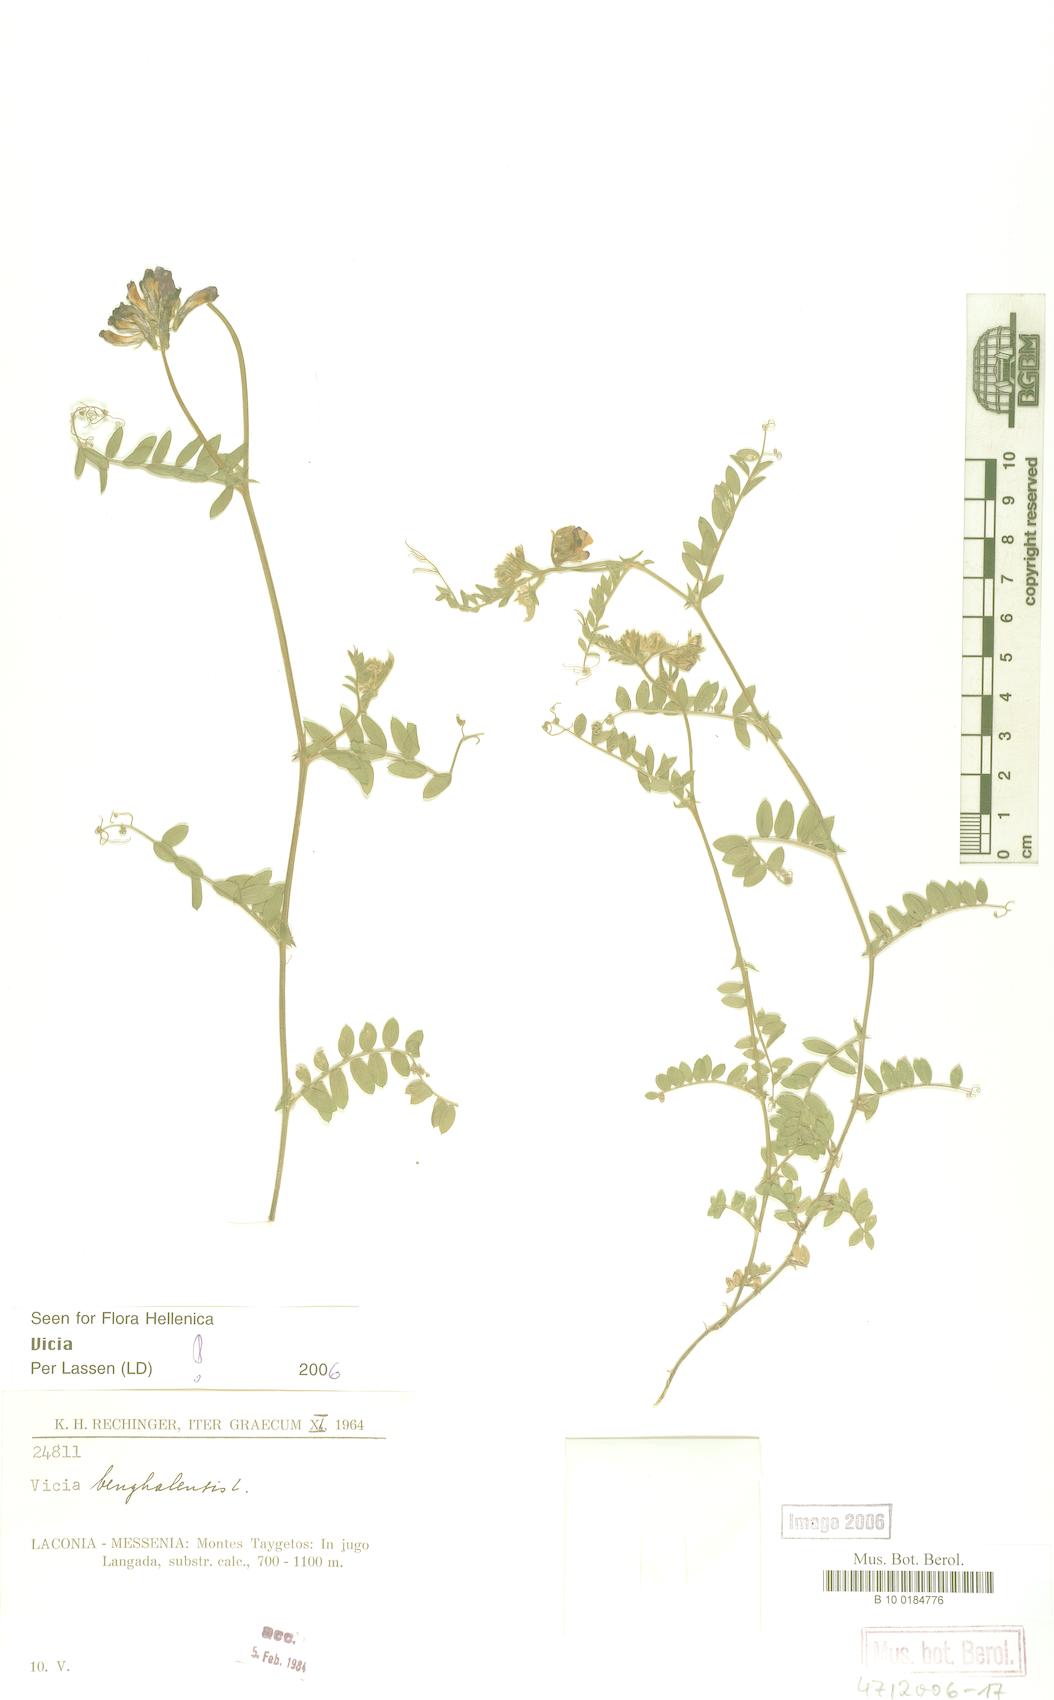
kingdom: Plantae
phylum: Tracheophyta
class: Magnoliopsida
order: Fabales
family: Fabaceae
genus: Vicia
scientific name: Vicia
